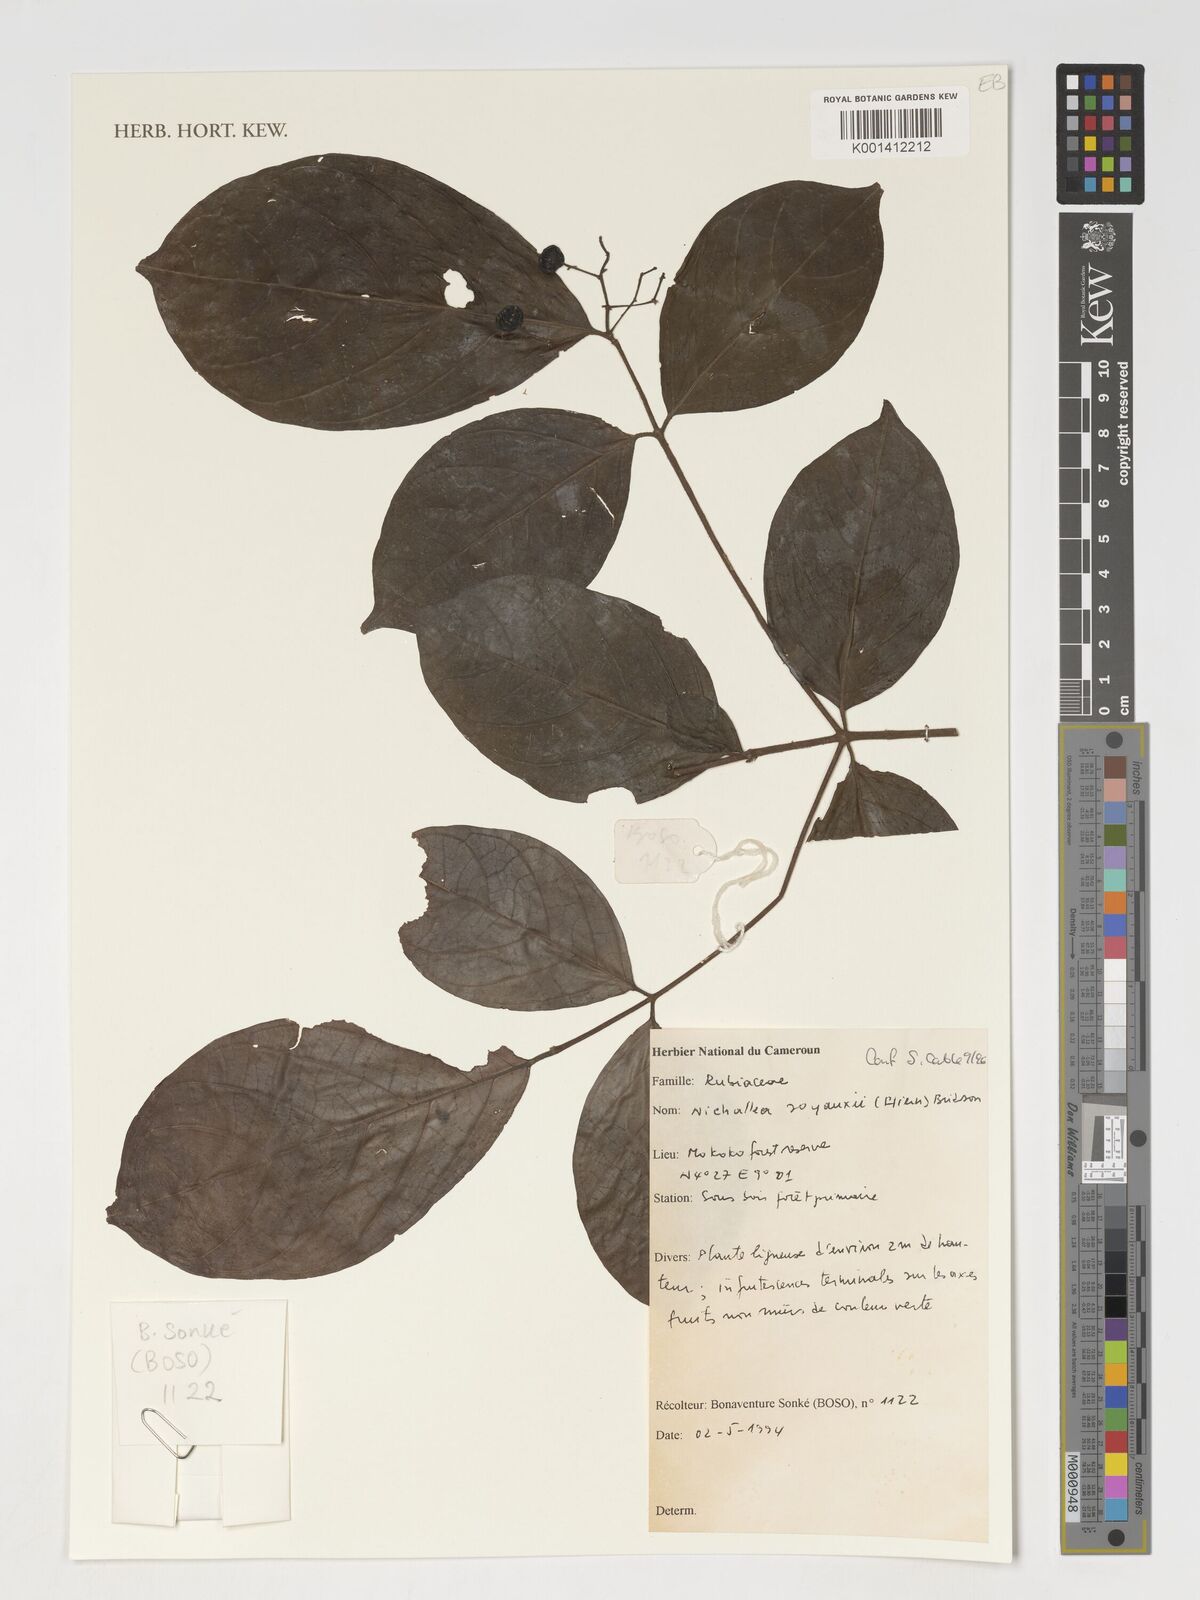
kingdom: Plantae
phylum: Tracheophyta
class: Magnoliopsida
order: Gentianales
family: Rubiaceae
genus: Nichallea
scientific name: Nichallea soyauxii
